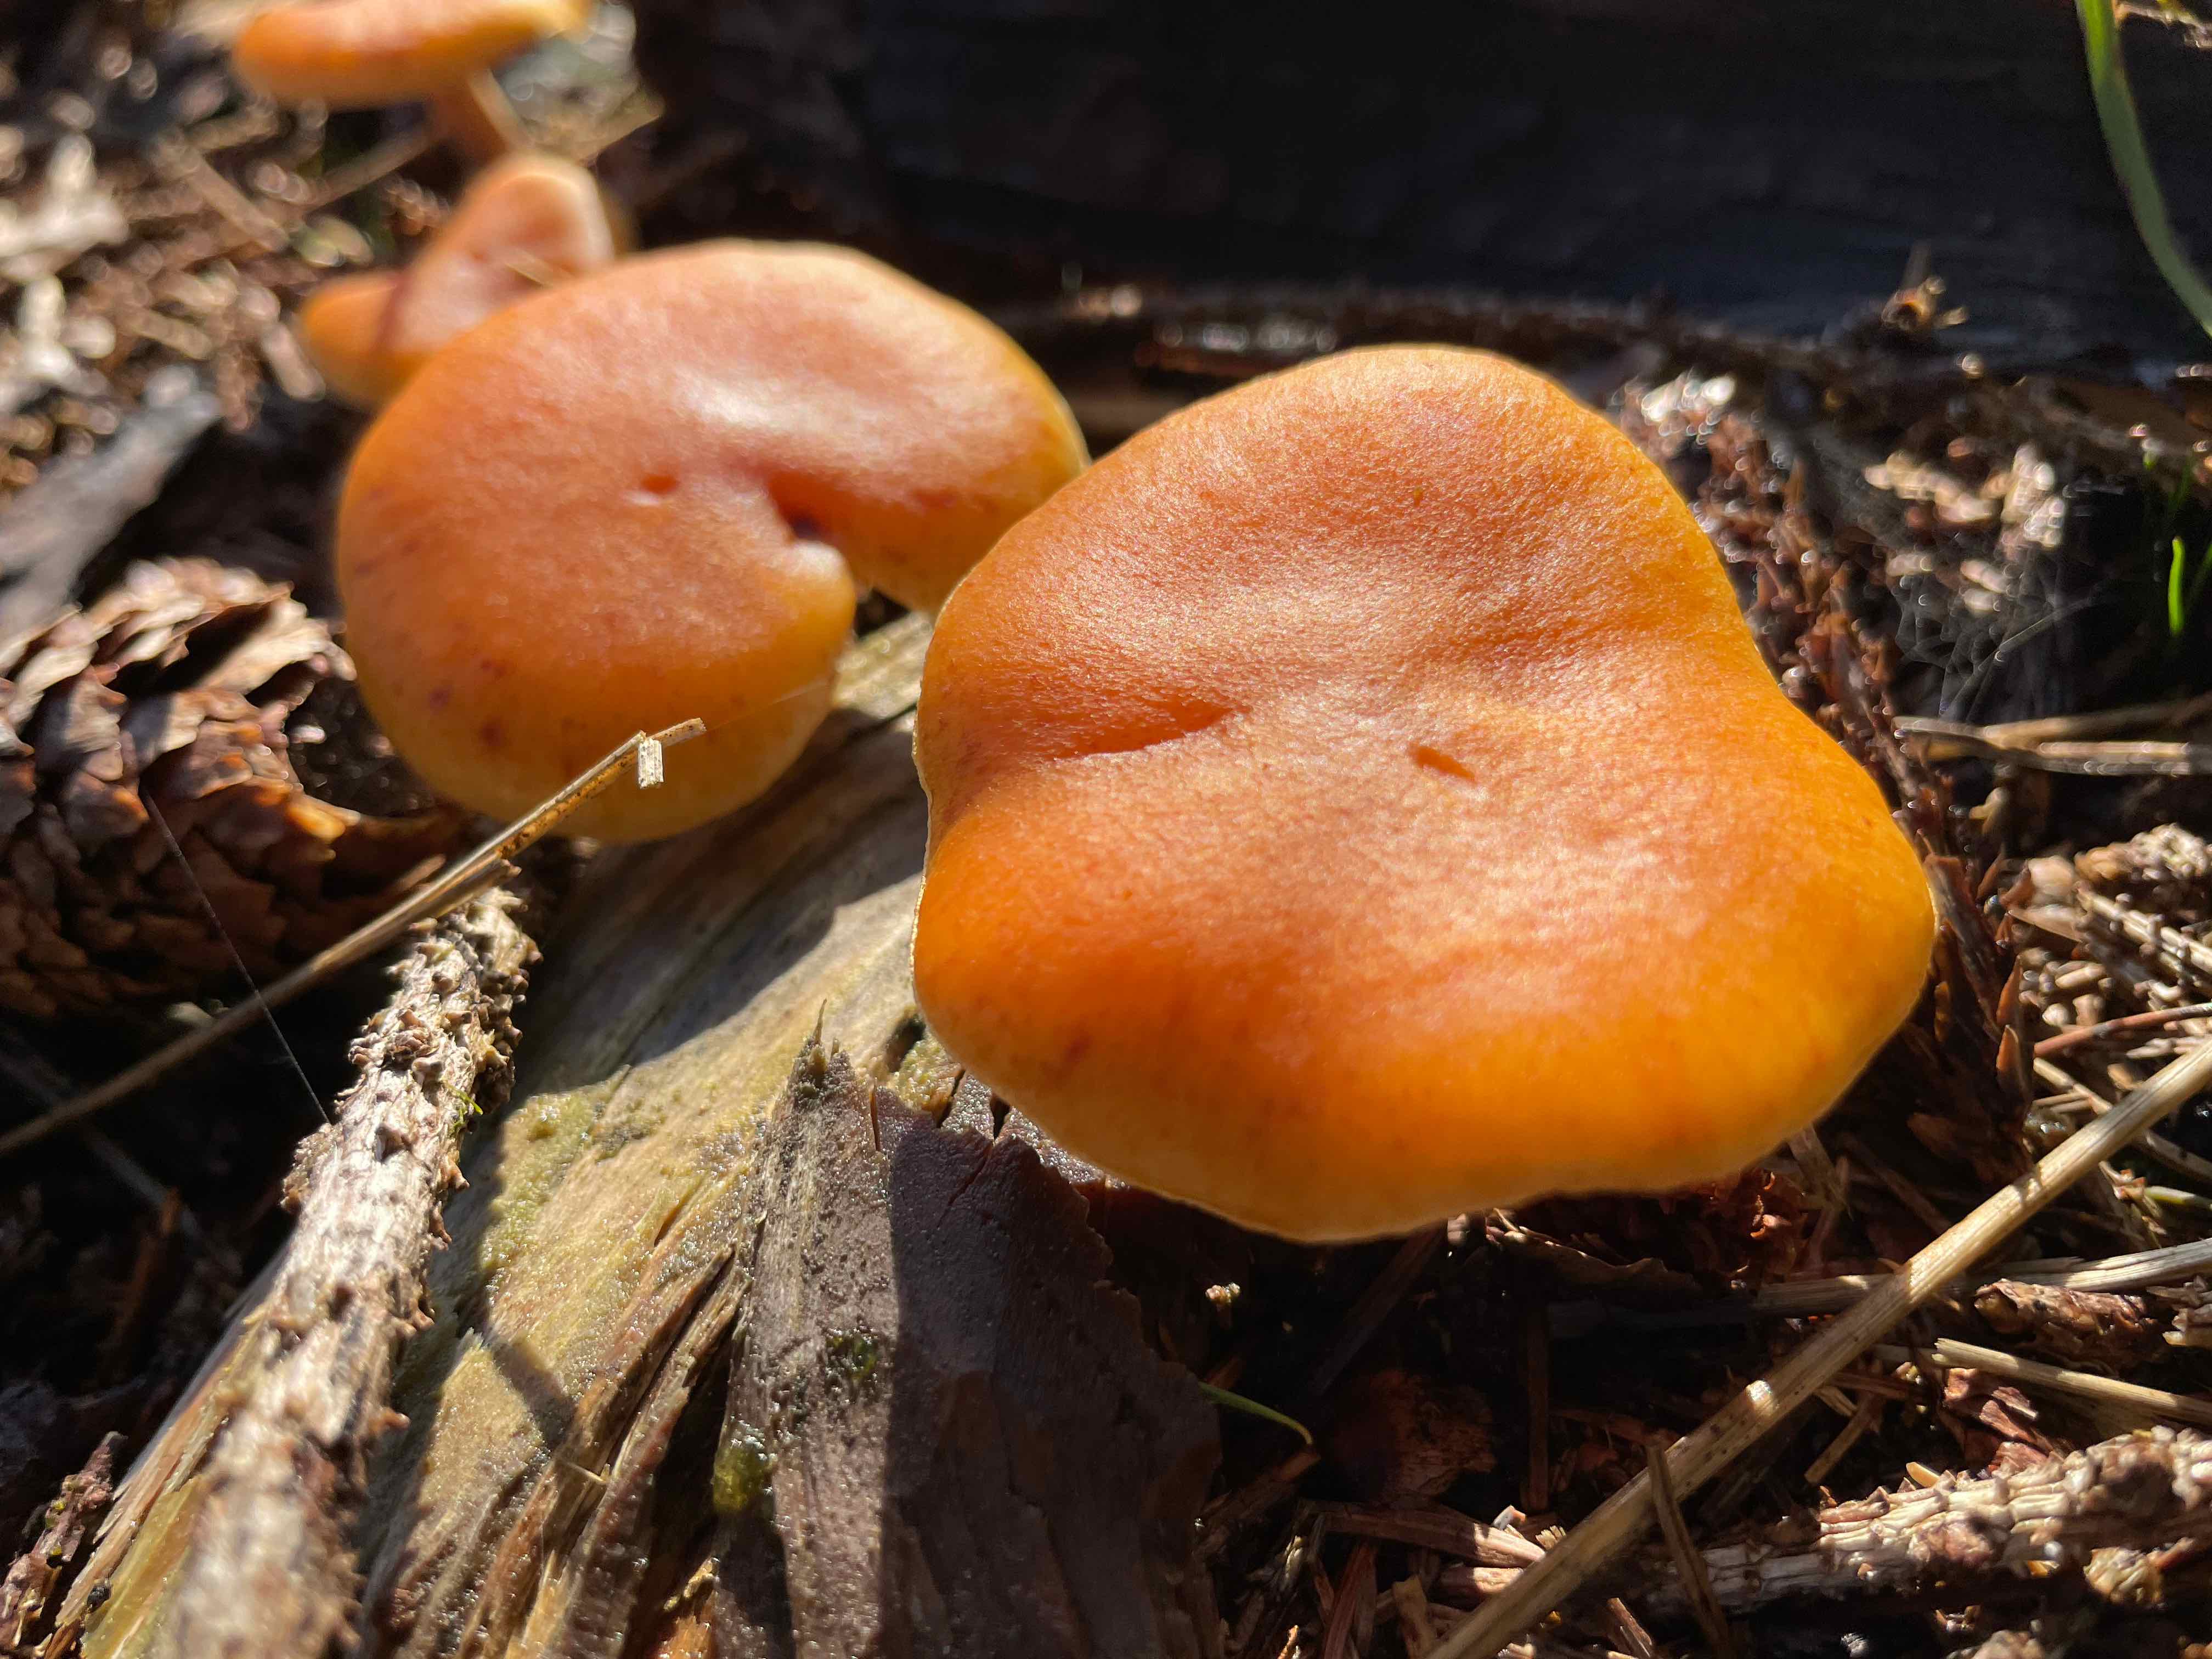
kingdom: Fungi
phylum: Basidiomycota
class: Agaricomycetes
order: Agaricales
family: Hymenogastraceae
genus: Gymnopilus
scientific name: Gymnopilus penetrans
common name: plettet flammehat
